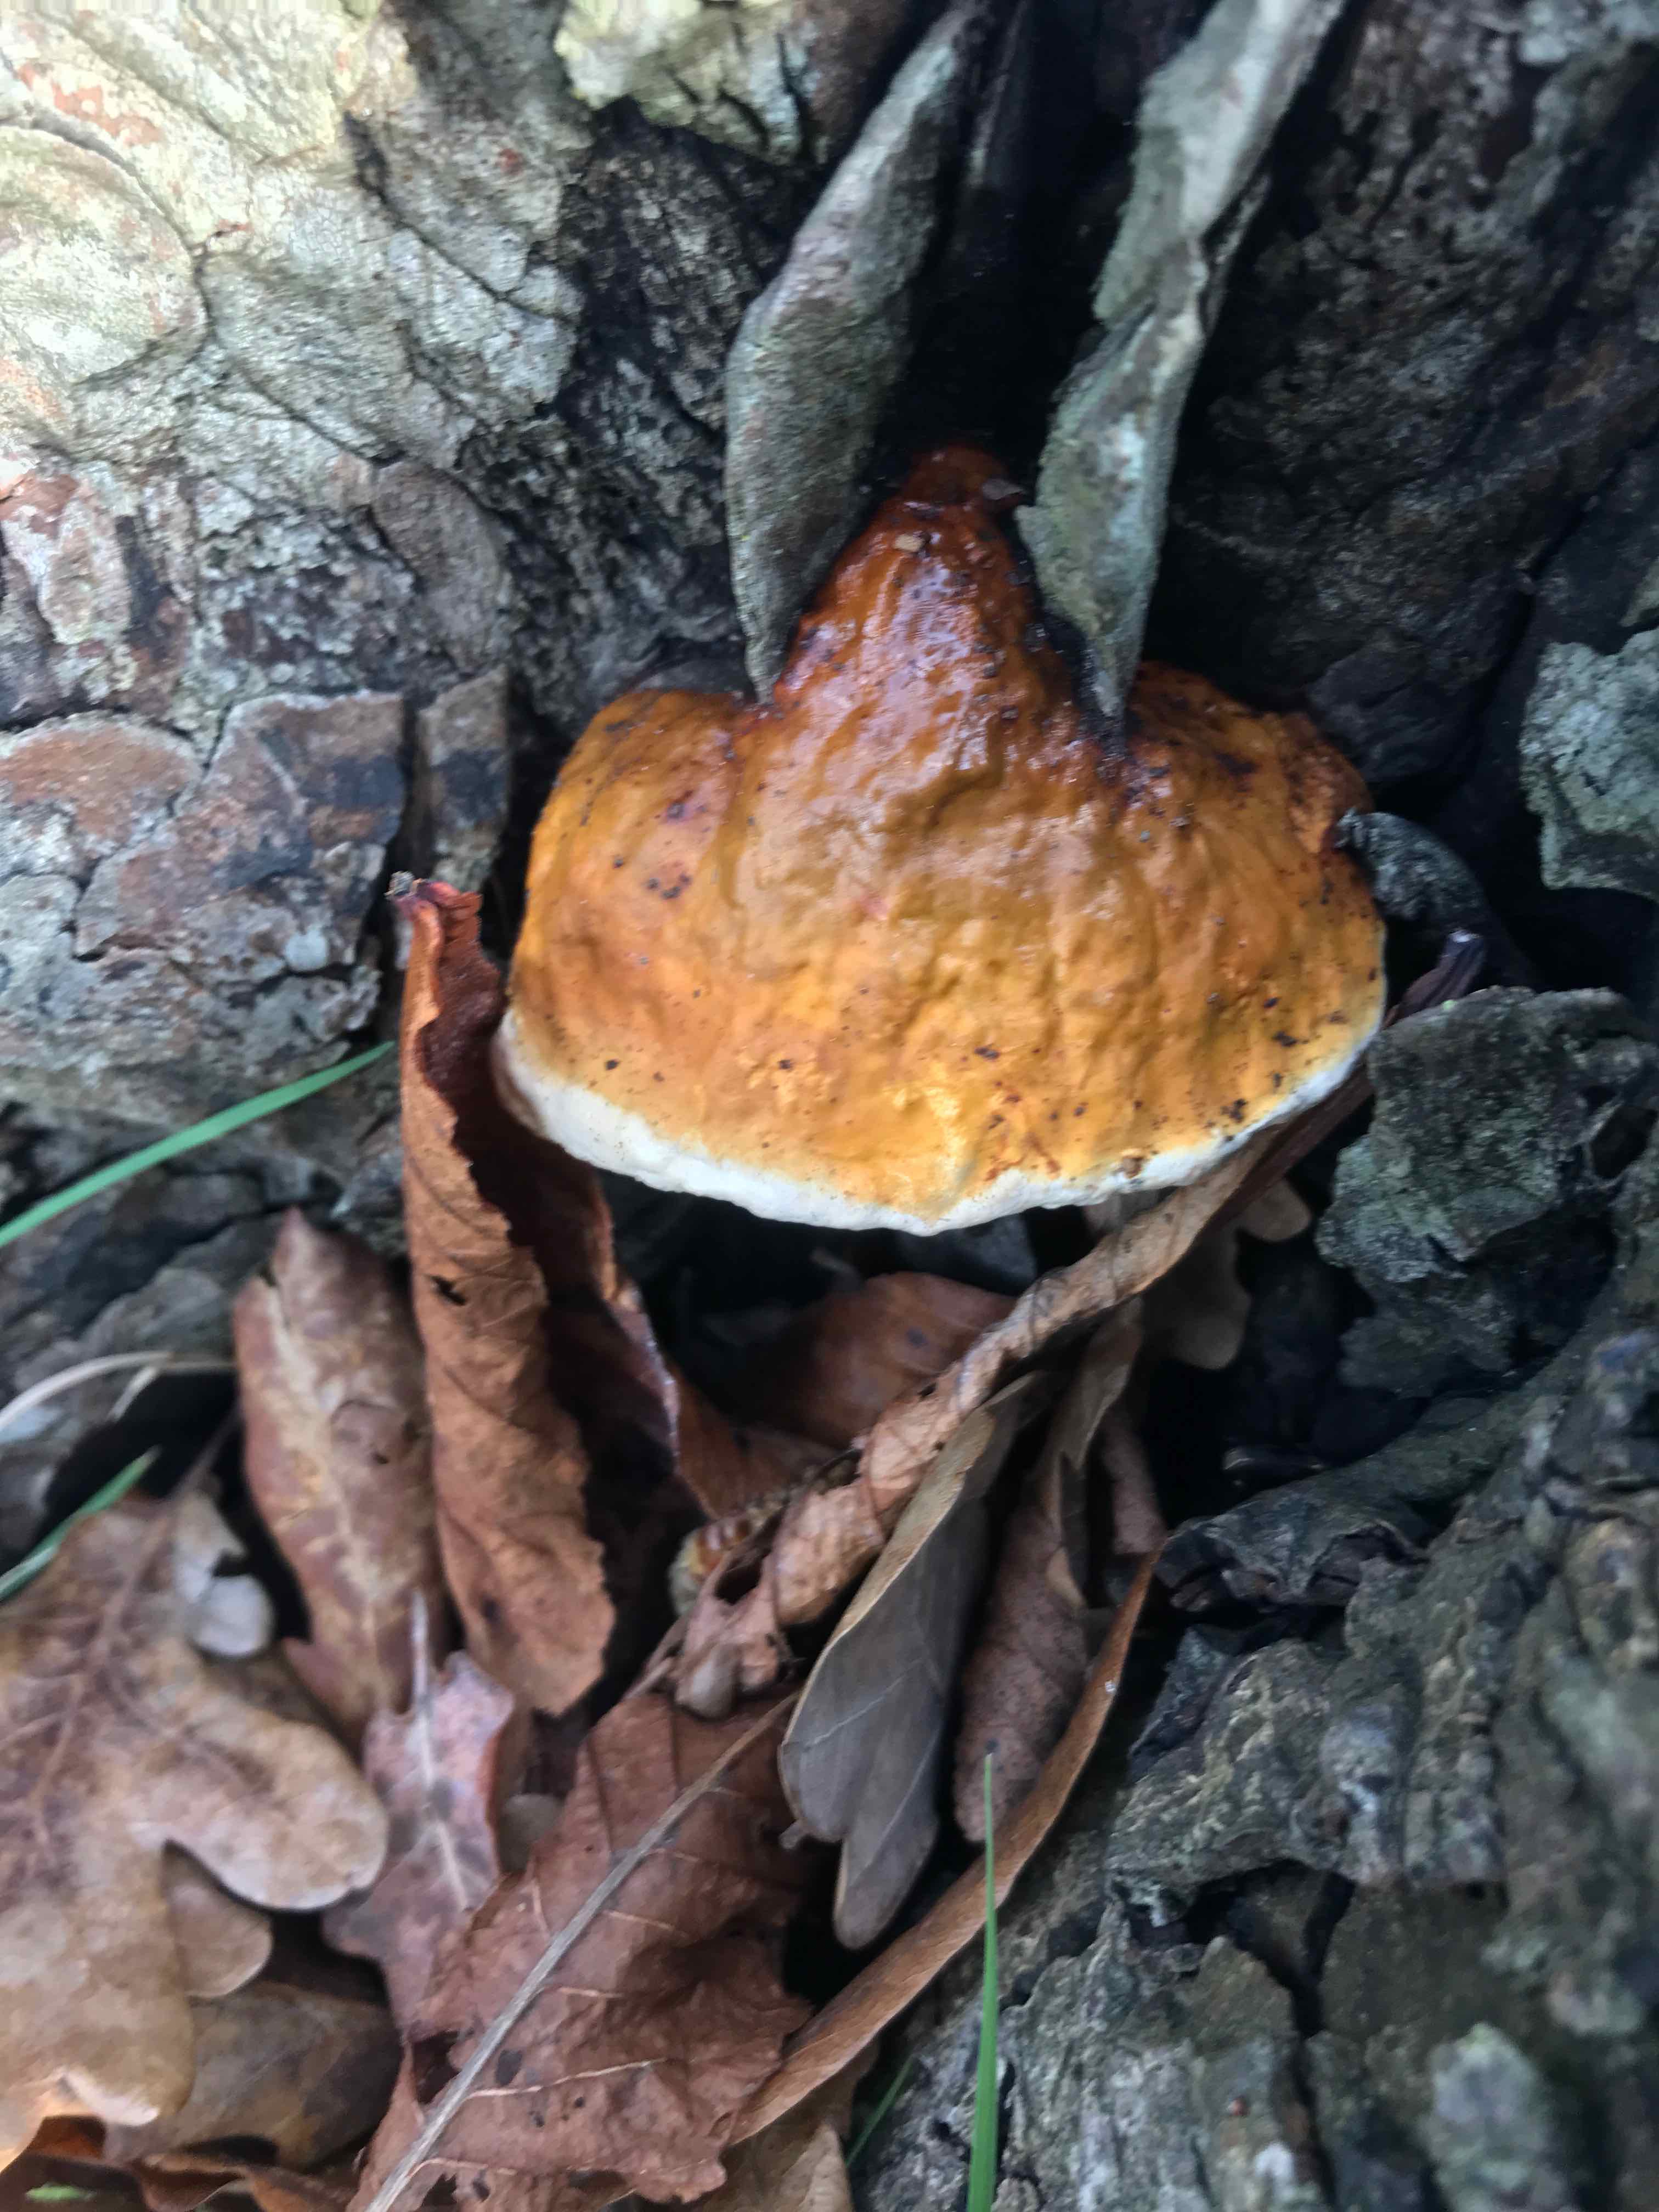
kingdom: Fungi
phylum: Basidiomycota
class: Agaricomycetes
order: Polyporales
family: Fomitopsidaceae
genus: Fomitopsis
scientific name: Fomitopsis pinicola
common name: randbæltet hovporesvamp
